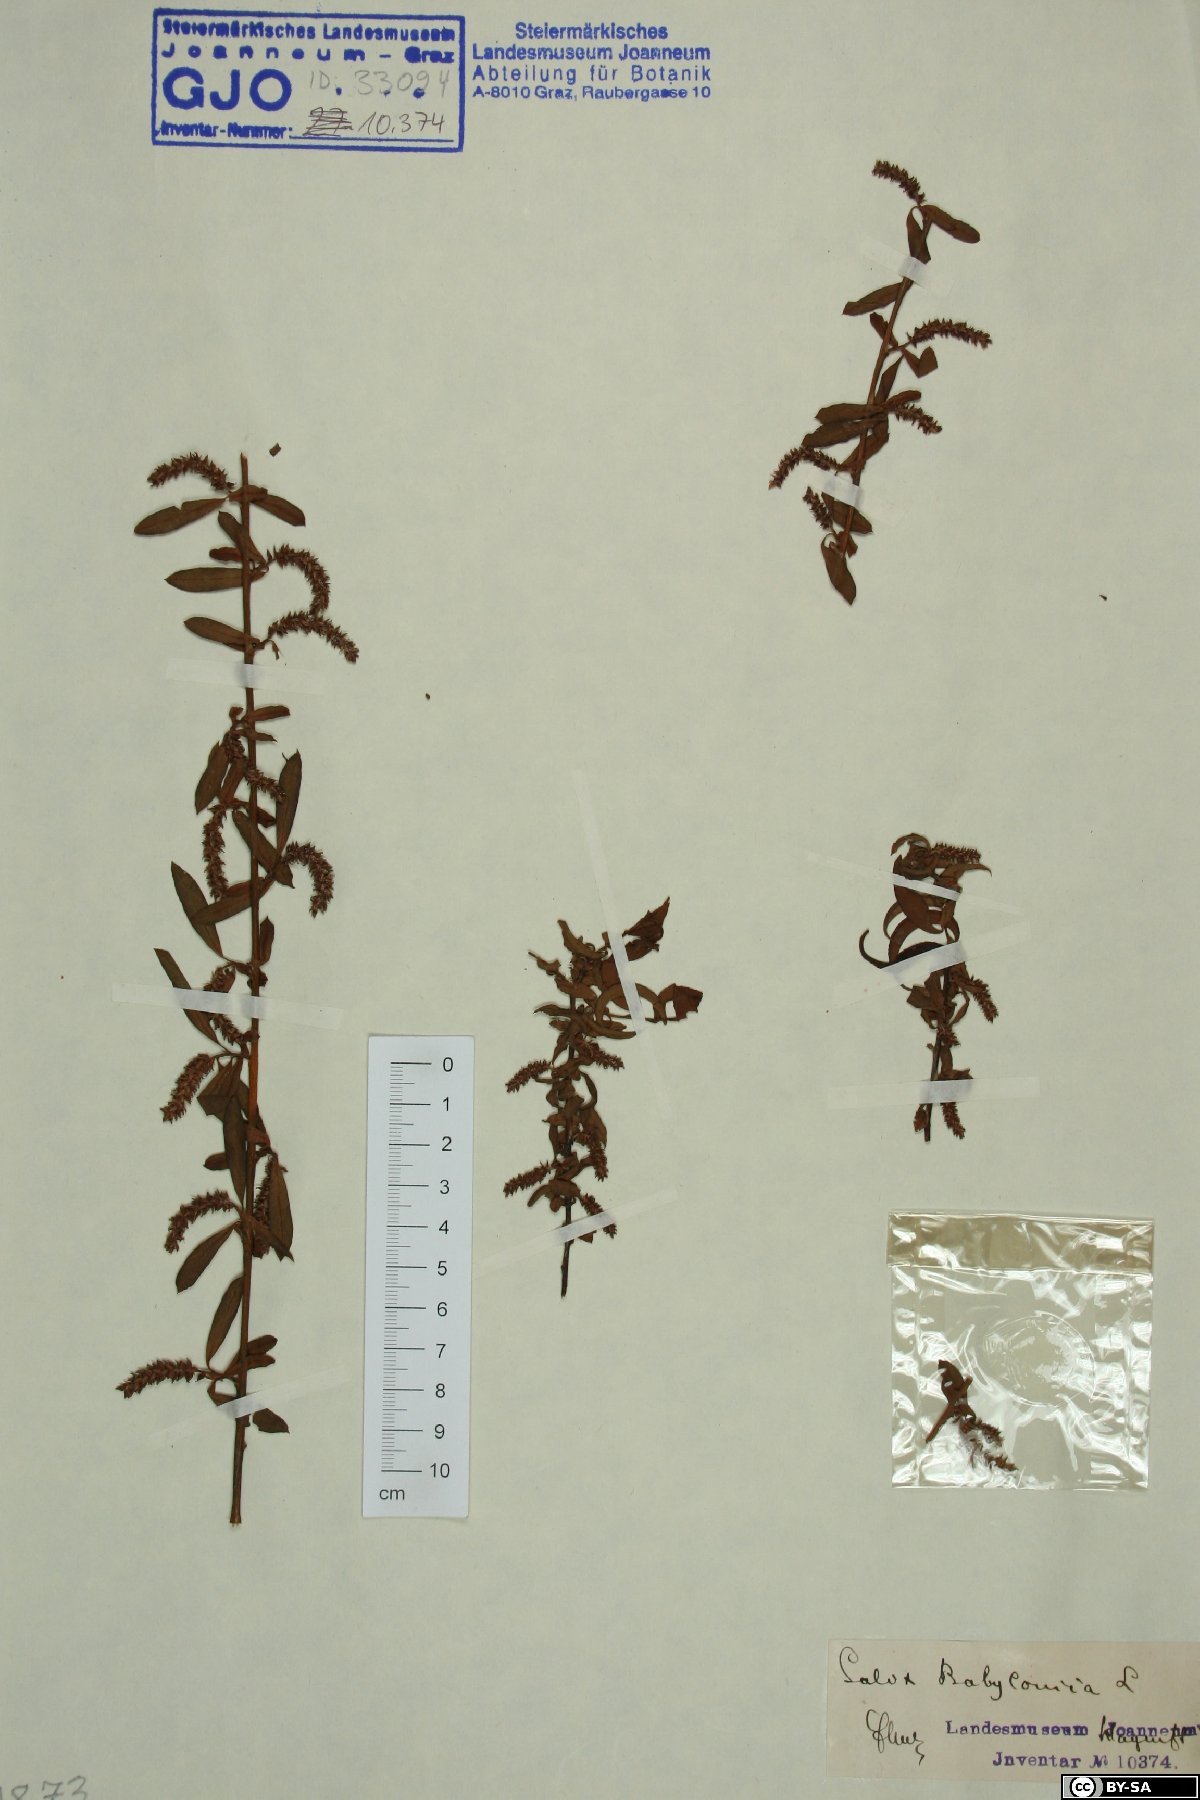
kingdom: Plantae
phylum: Tracheophyta
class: Magnoliopsida
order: Malpighiales
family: Salicaceae
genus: Salix
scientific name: Salix babylonica
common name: Weeping willow
